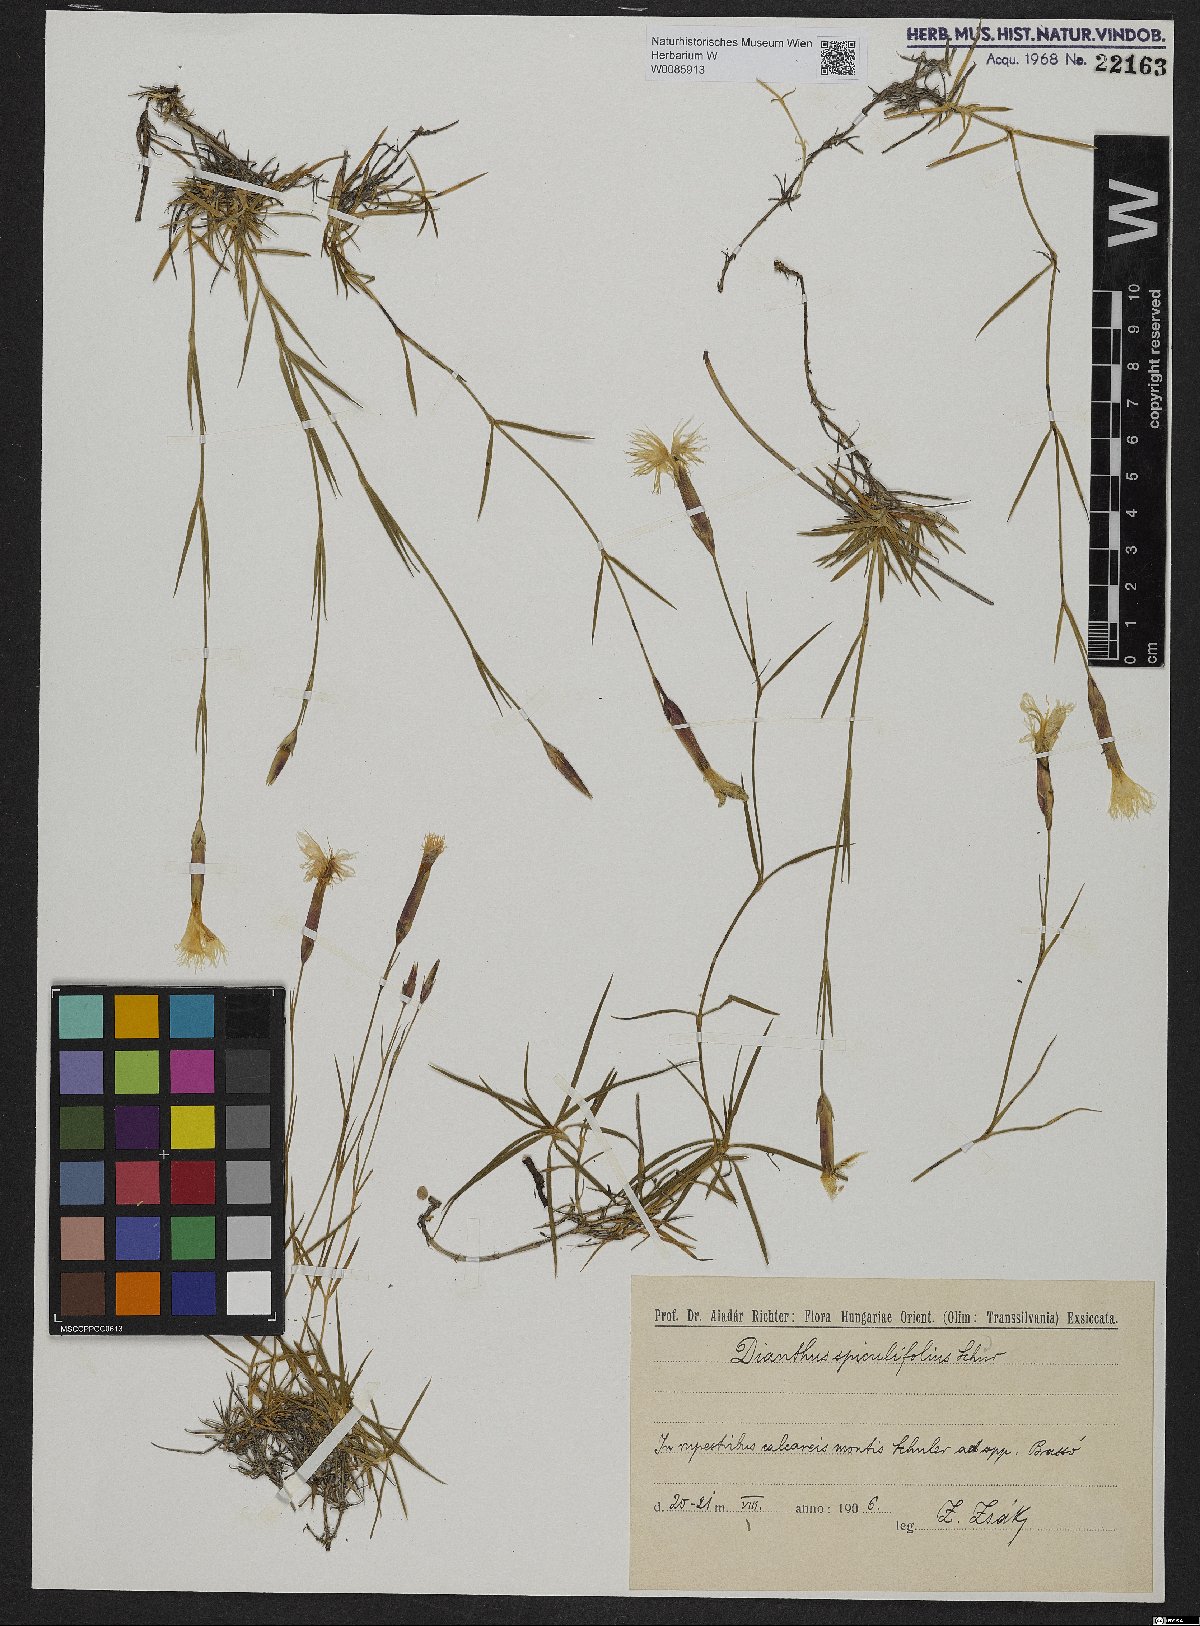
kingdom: Plantae
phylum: Tracheophyta
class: Magnoliopsida
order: Caryophyllales
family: Caryophyllaceae
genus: Dianthus
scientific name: Dianthus spiculifolius
